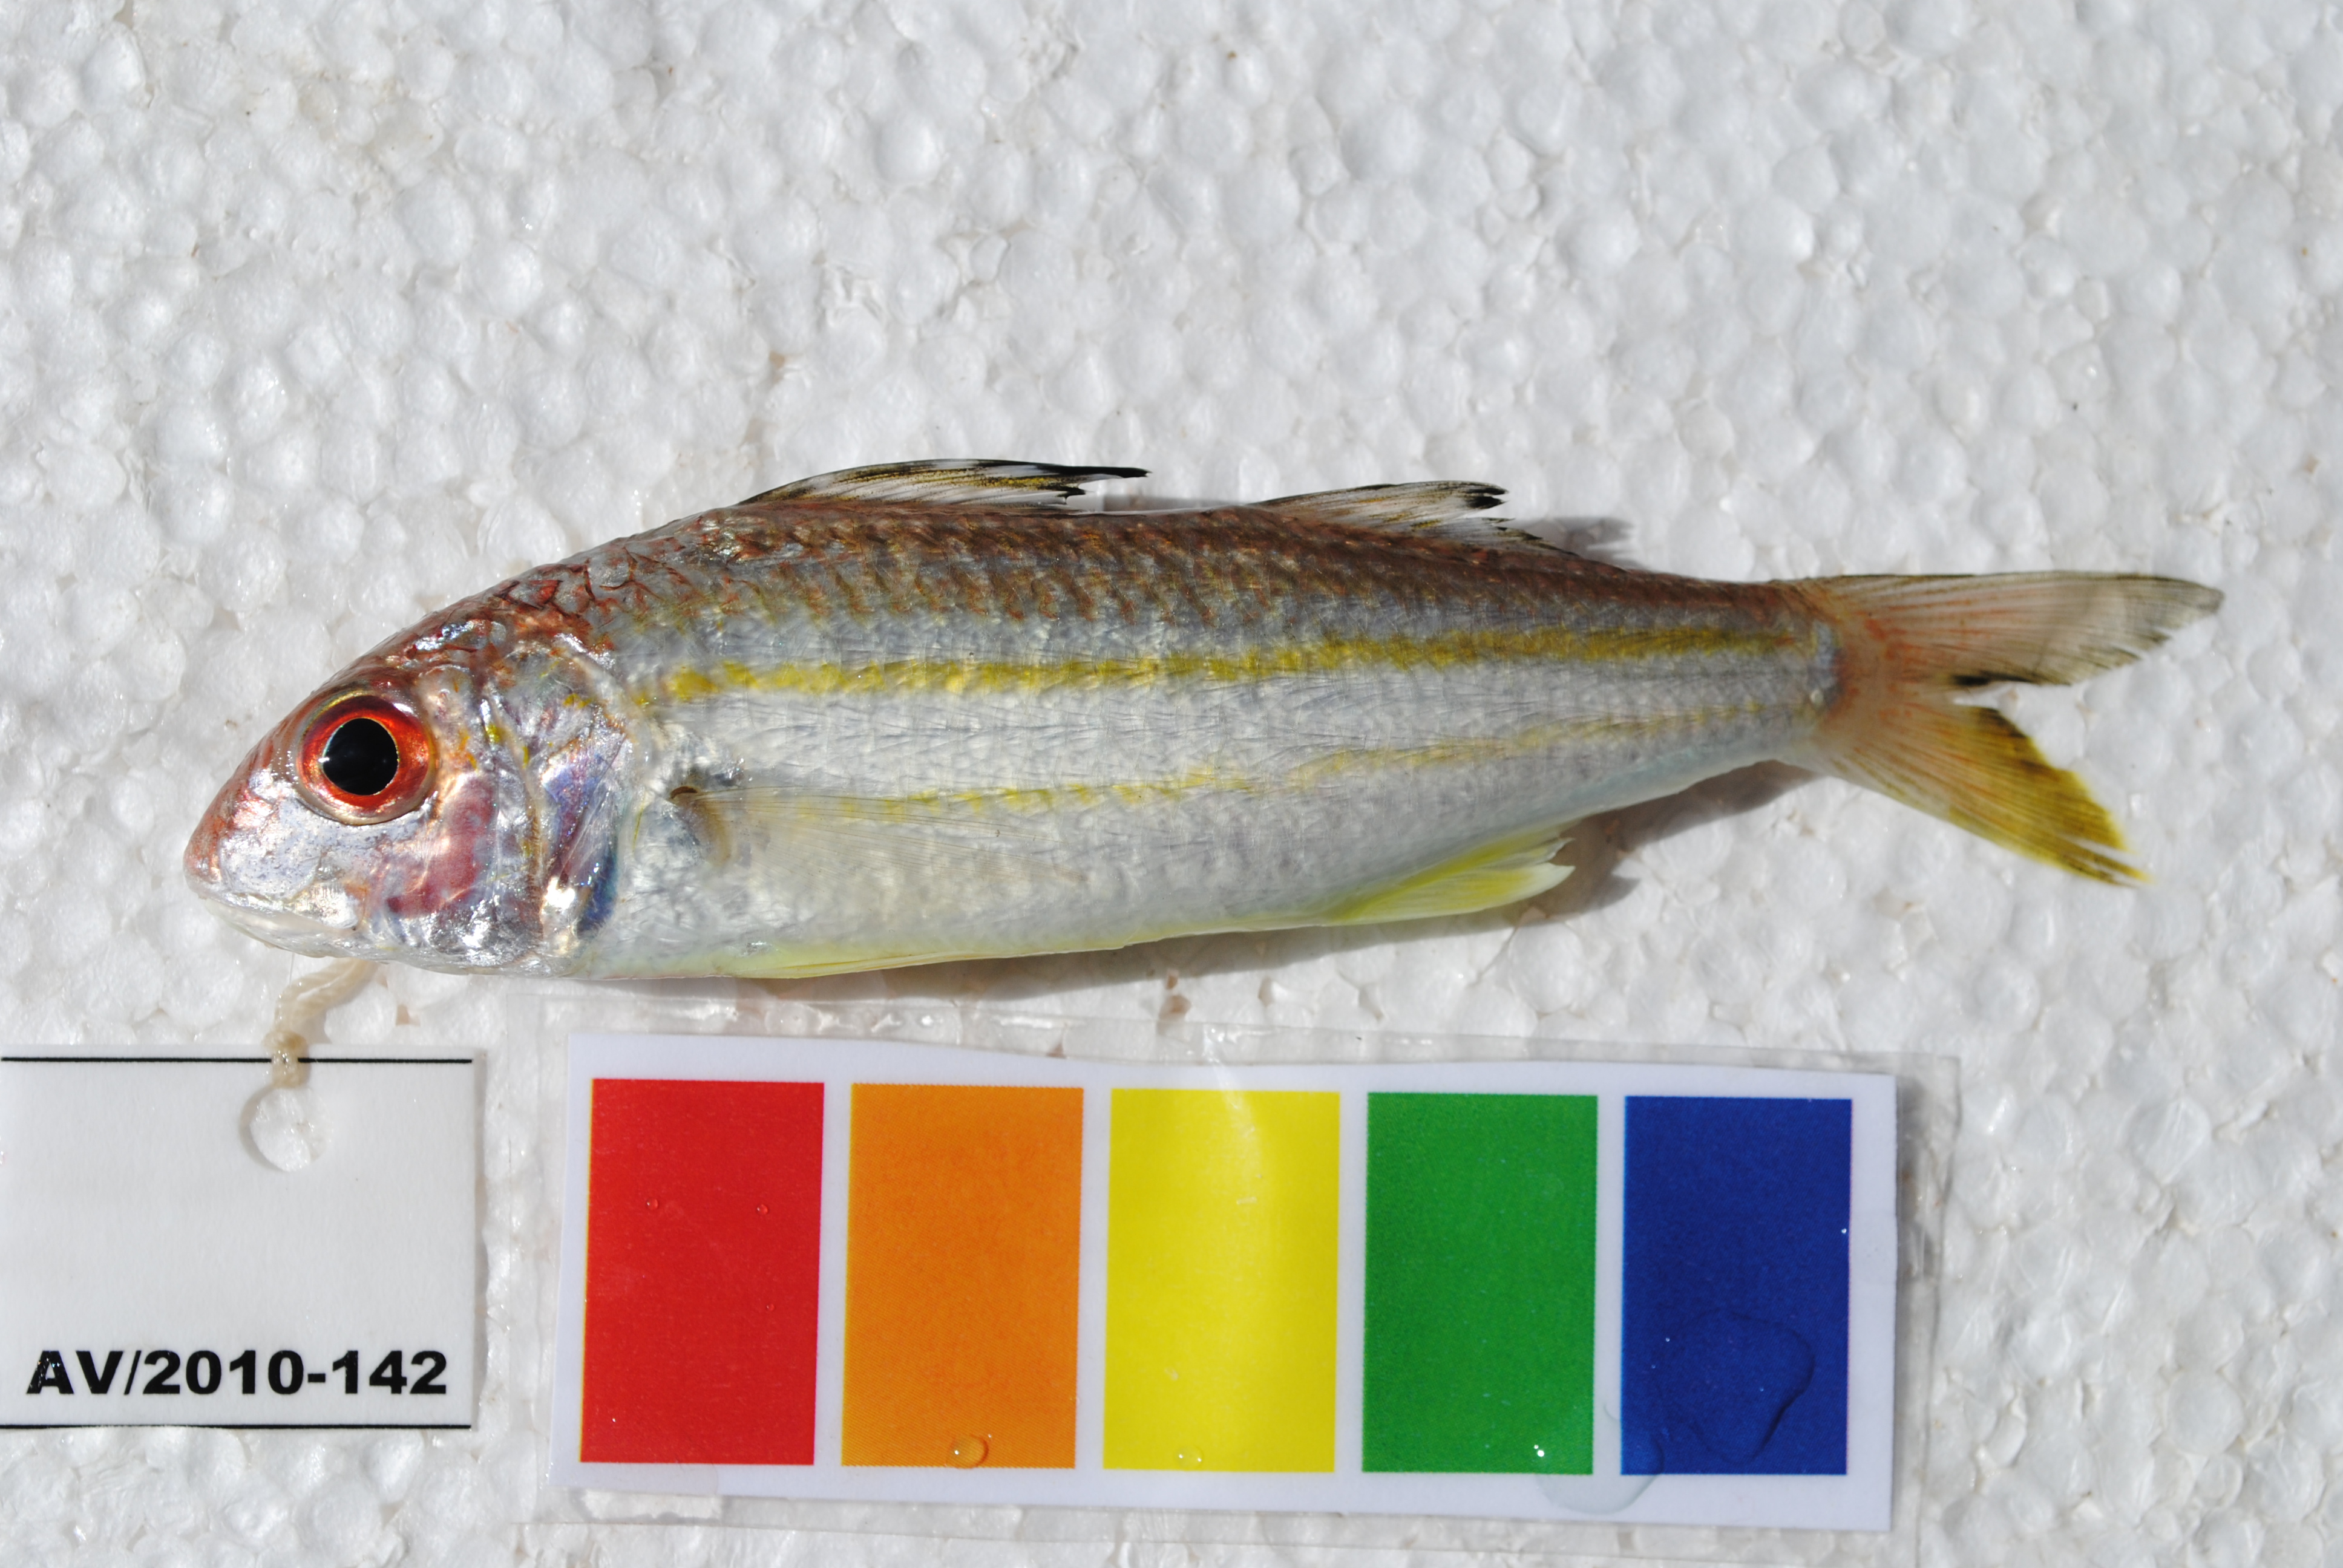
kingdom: Animalia
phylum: Chordata
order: Perciformes
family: Mullidae
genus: Upeneus
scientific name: Upeneus sulphureus
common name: Sulphur goatfish
